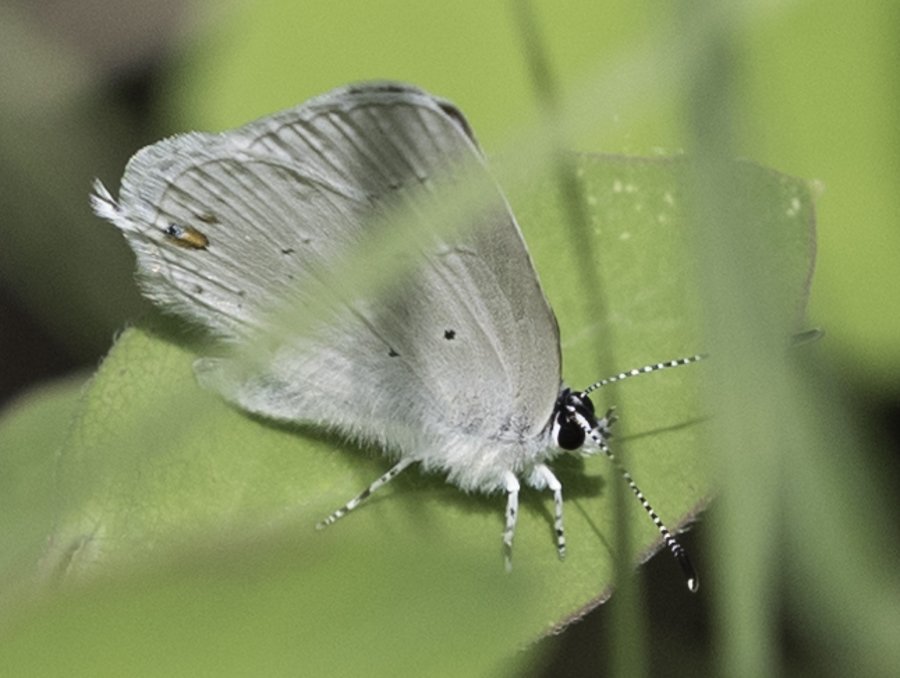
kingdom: Animalia
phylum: Arthropoda
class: Insecta
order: Lepidoptera
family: Lycaenidae
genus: Elkalyce
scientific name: Elkalyce amyntula
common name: Western Tailed-Blue
